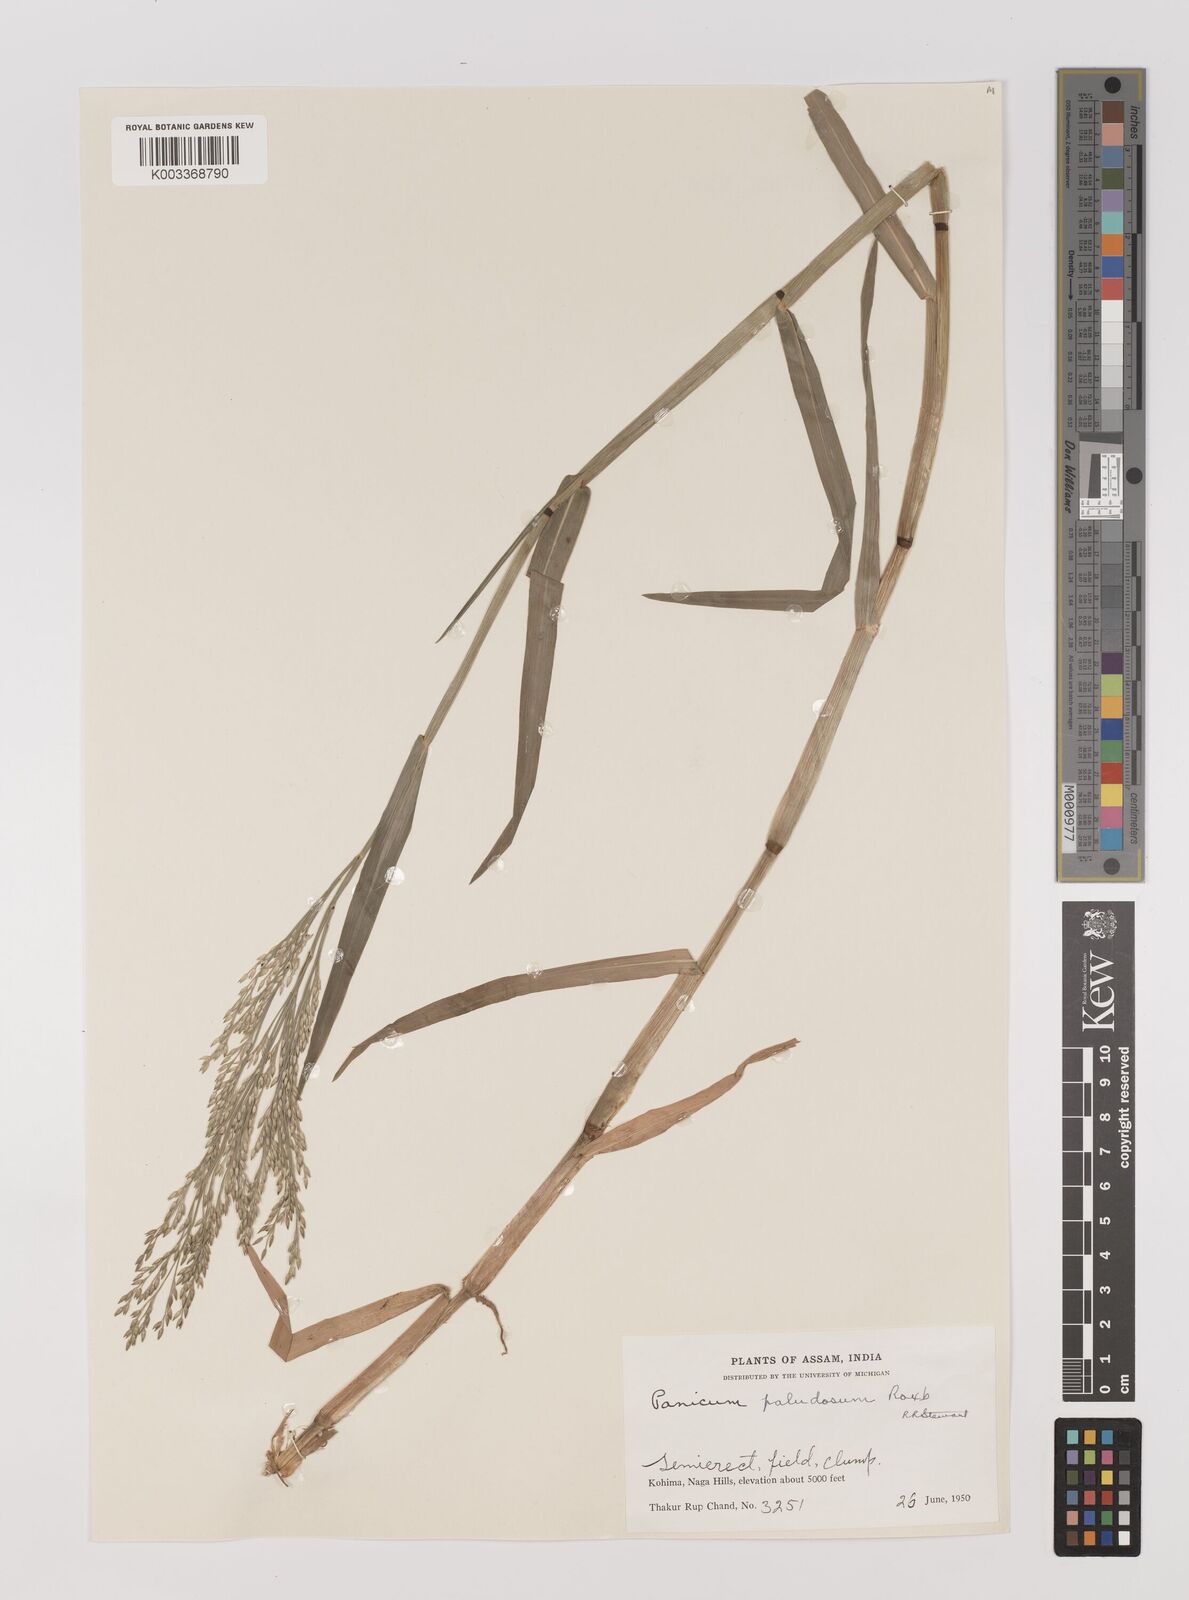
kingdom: Plantae
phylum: Tracheophyta
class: Liliopsida
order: Poales
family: Poaceae
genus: Louisiella
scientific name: Louisiella paludosa
